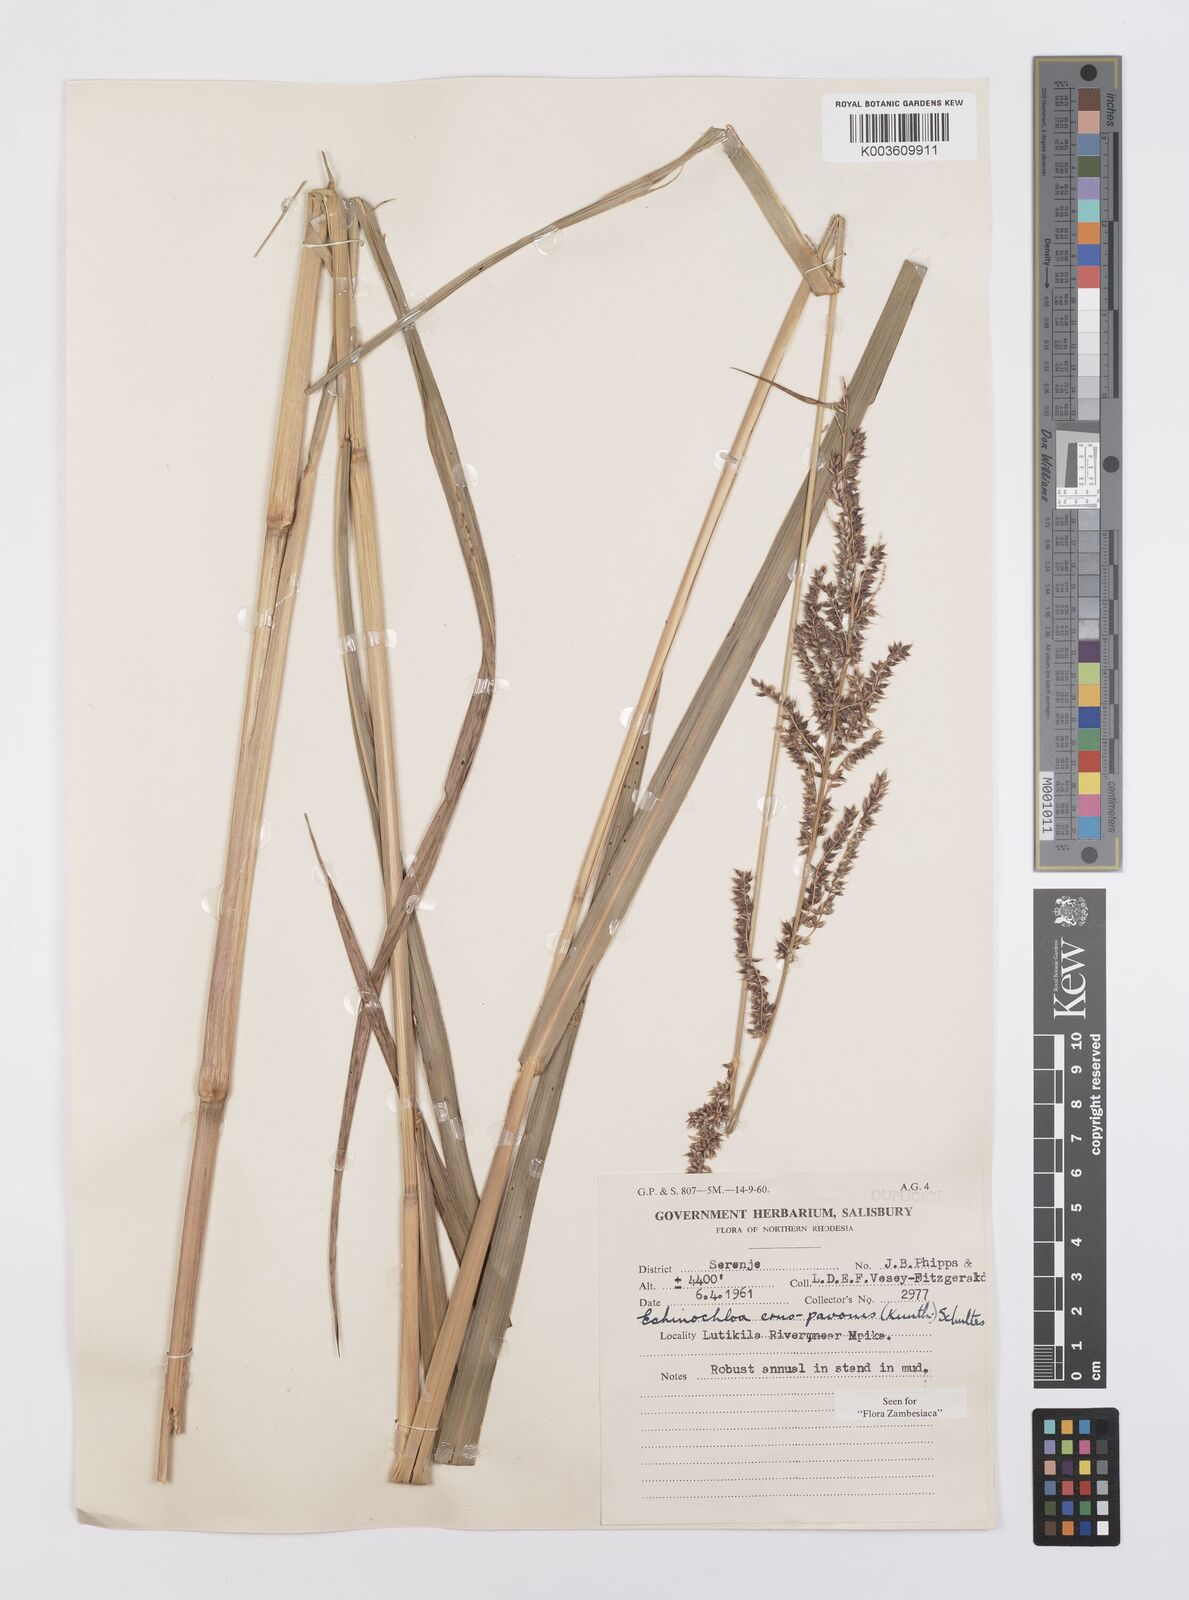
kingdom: Plantae
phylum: Tracheophyta
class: Liliopsida
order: Poales
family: Poaceae
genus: Echinochloa
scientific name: Echinochloa crus-pavonis
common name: Gulf cockspur grass
